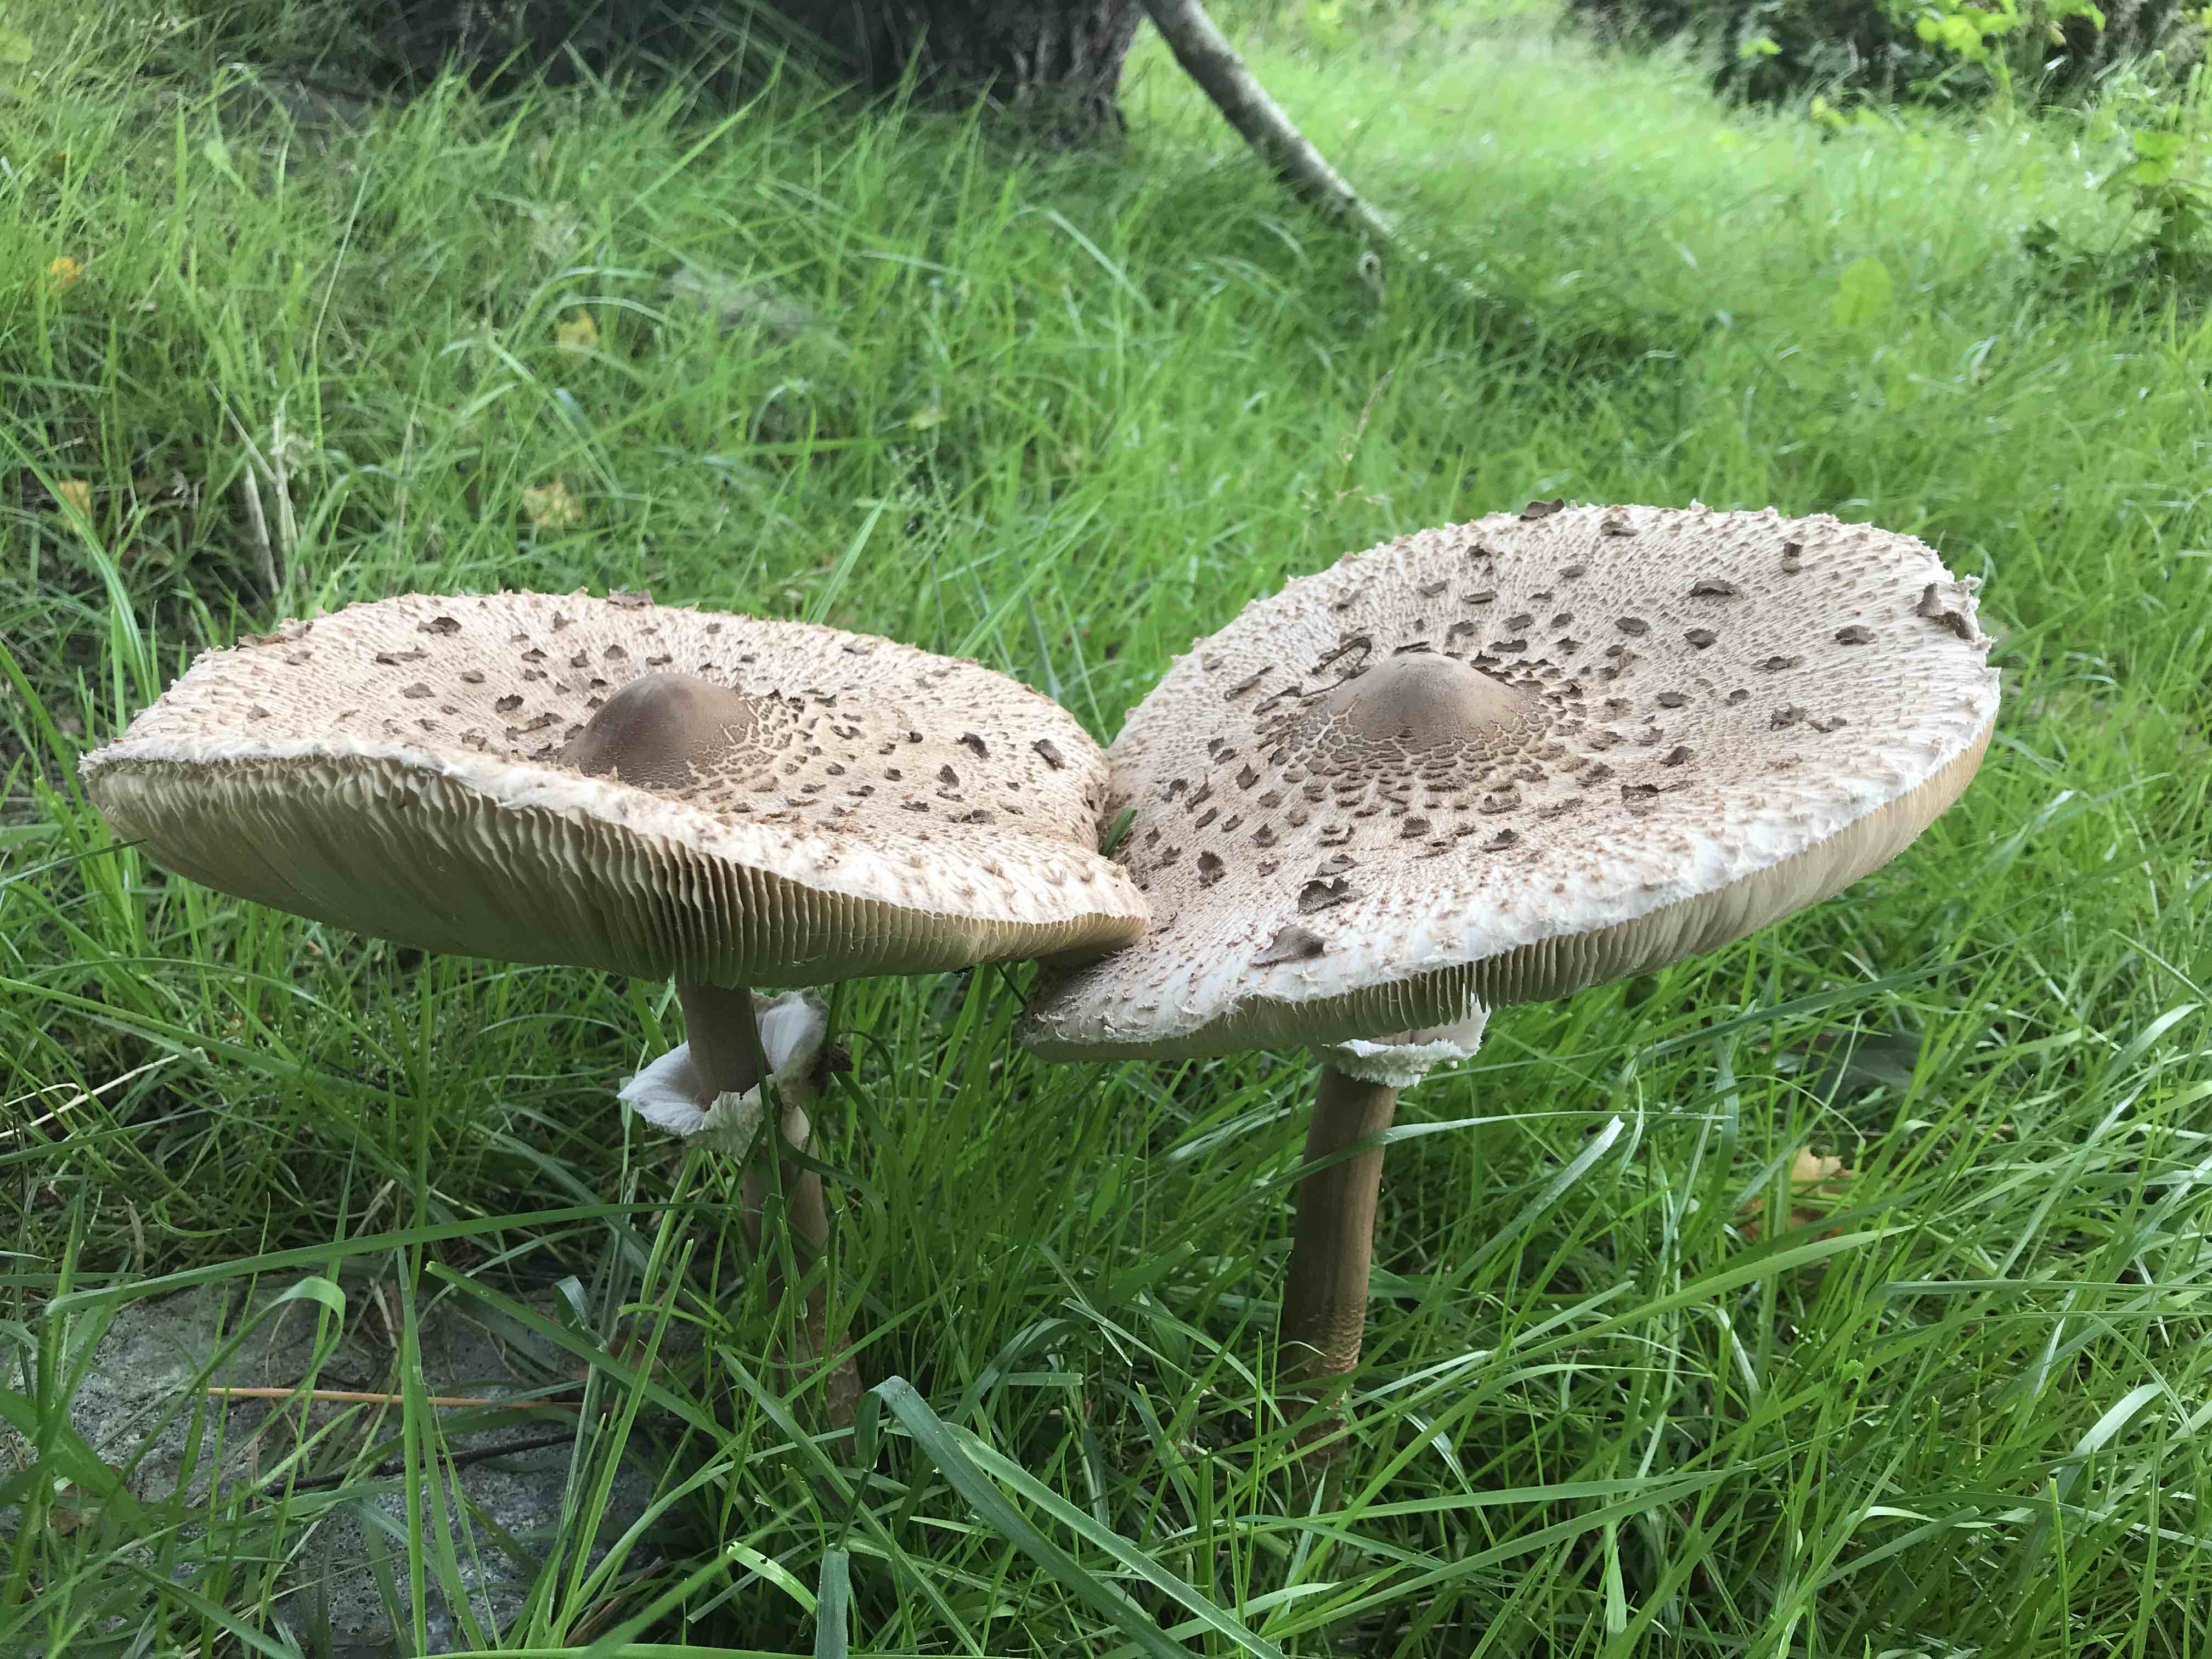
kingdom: Fungi
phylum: Basidiomycota
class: Agaricomycetes
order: Agaricales
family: Agaricaceae
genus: Macrolepiota
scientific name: Macrolepiota procera
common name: stor kæmpeparasolhat
